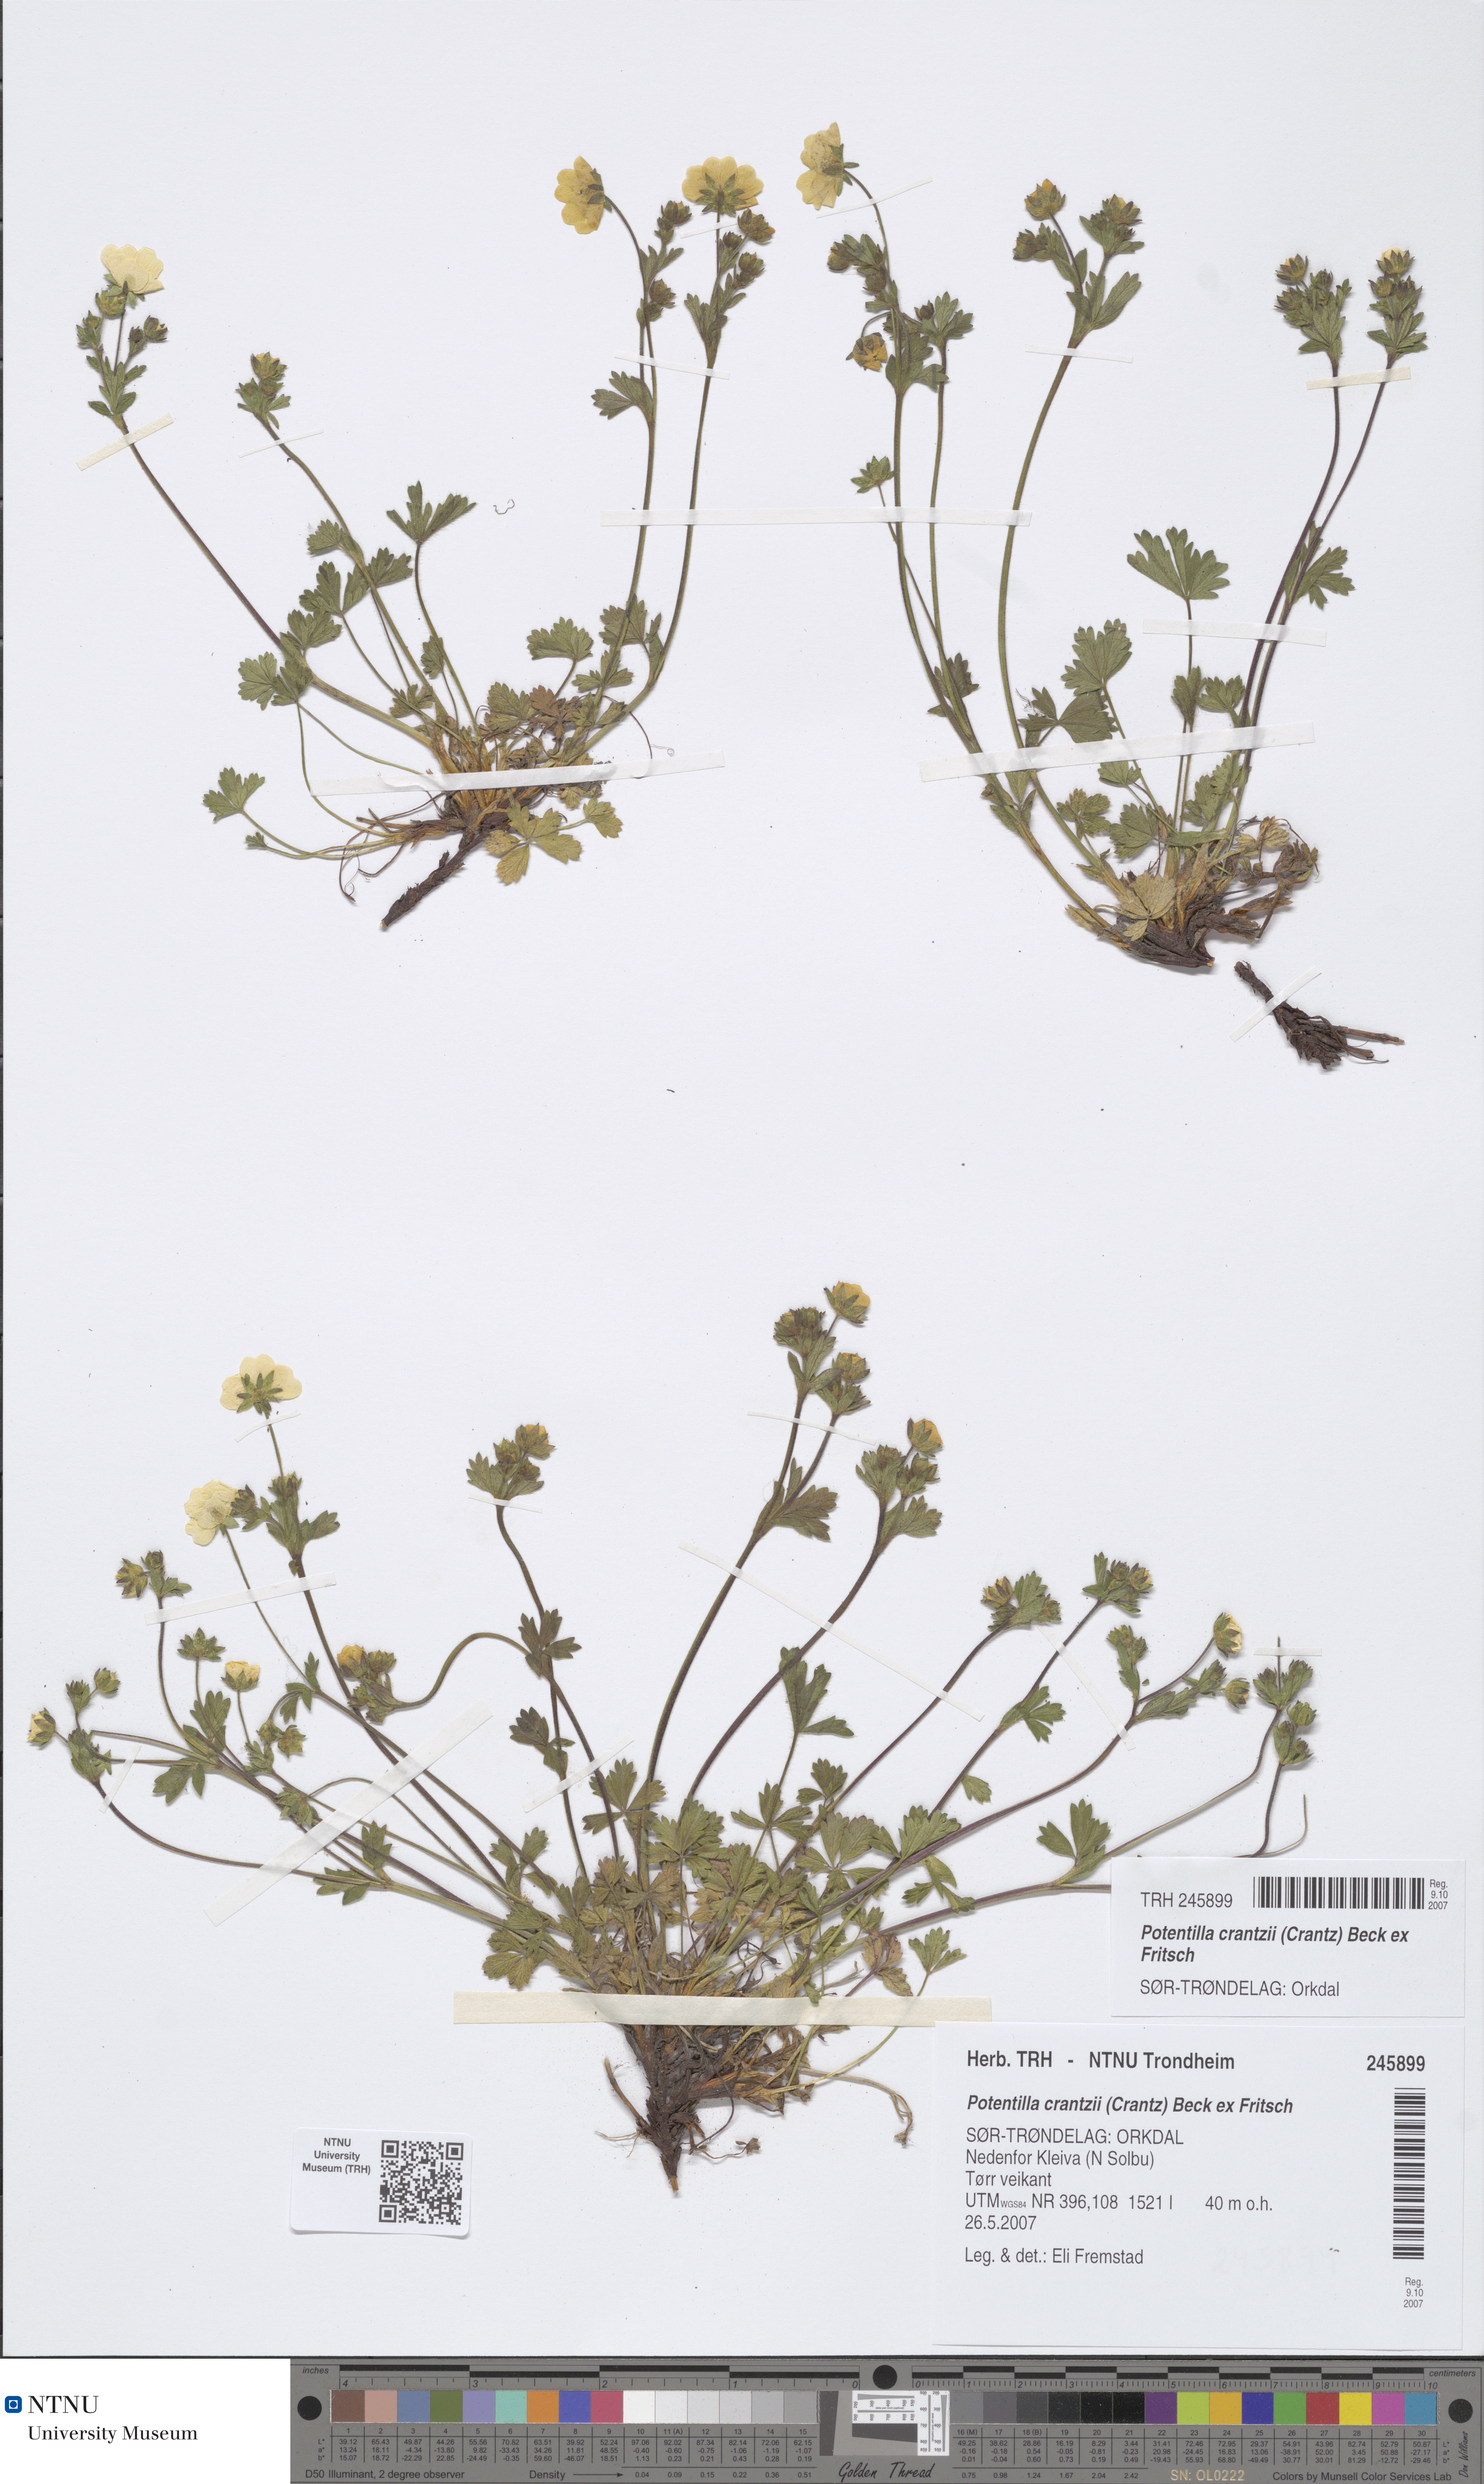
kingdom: Plantae
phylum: Tracheophyta
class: Magnoliopsida
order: Rosales
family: Rosaceae
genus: Potentilla
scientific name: Potentilla crantzii
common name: Alpine cinquefoil
